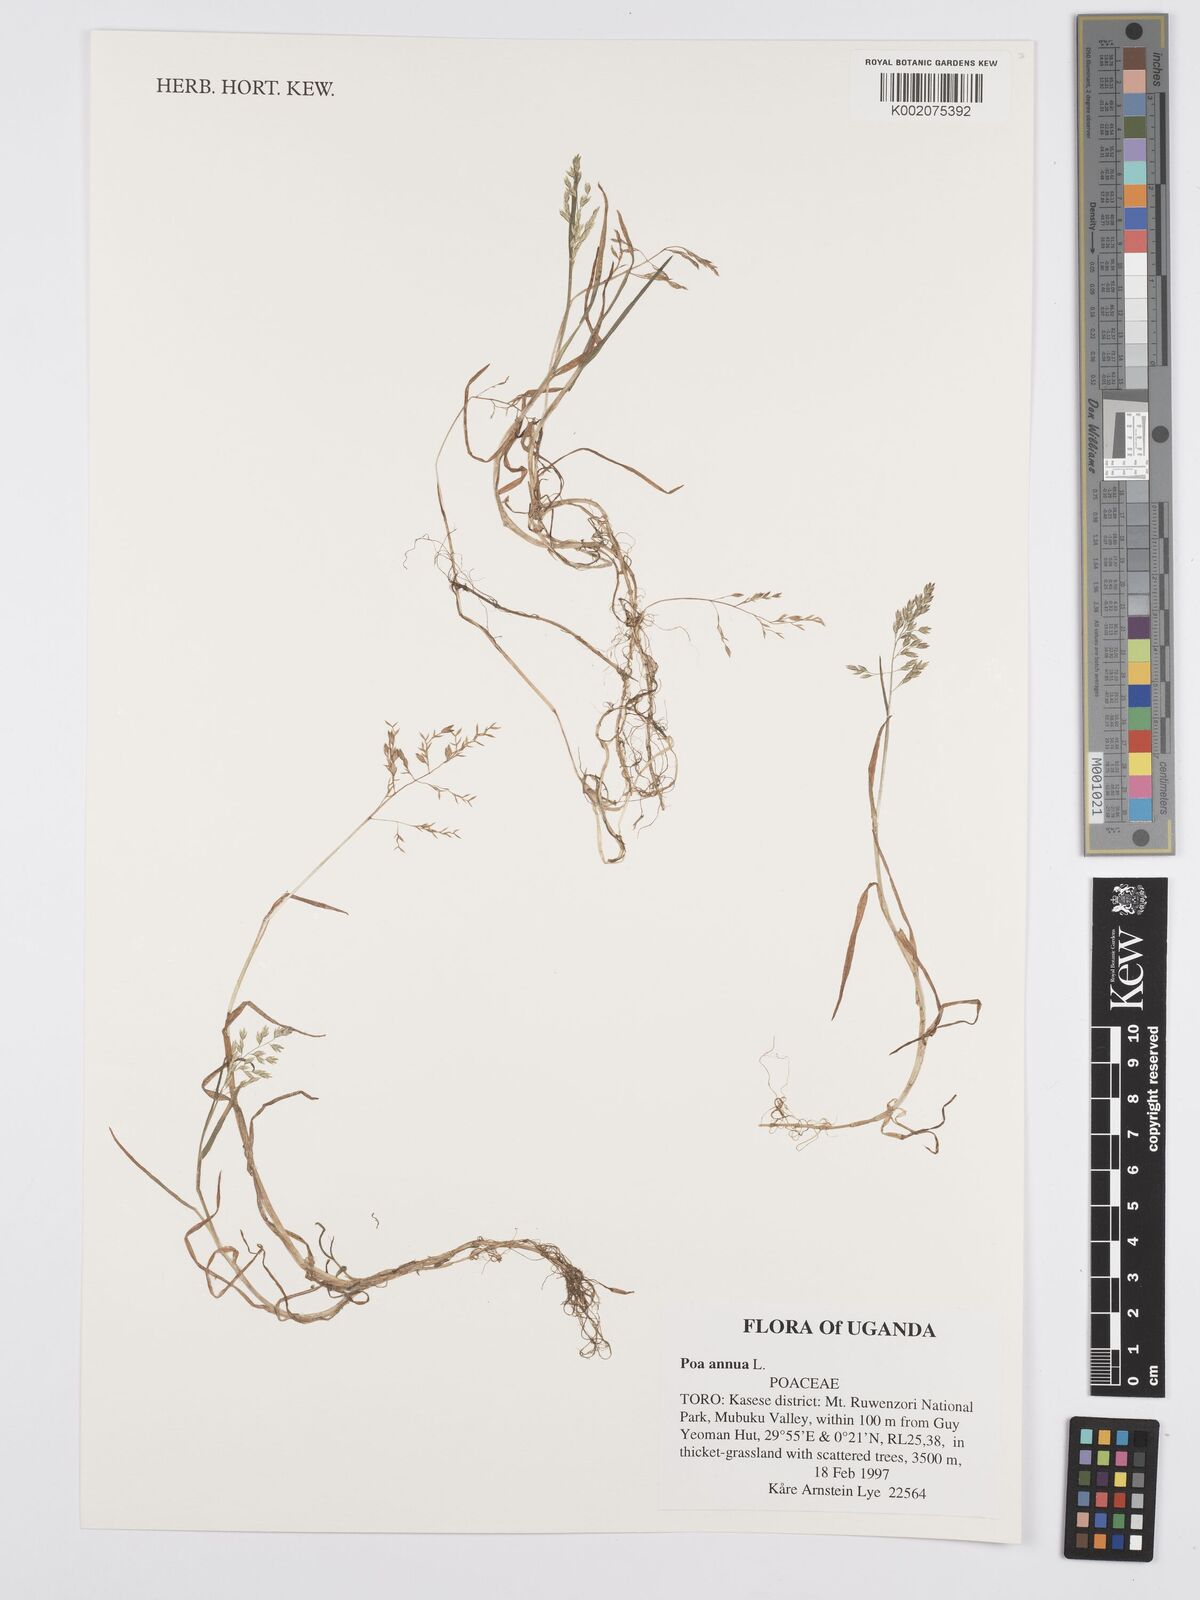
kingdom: Plantae
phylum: Tracheophyta
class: Liliopsida
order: Poales
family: Poaceae
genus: Poa
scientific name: Poa annua
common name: Annual bluegrass
